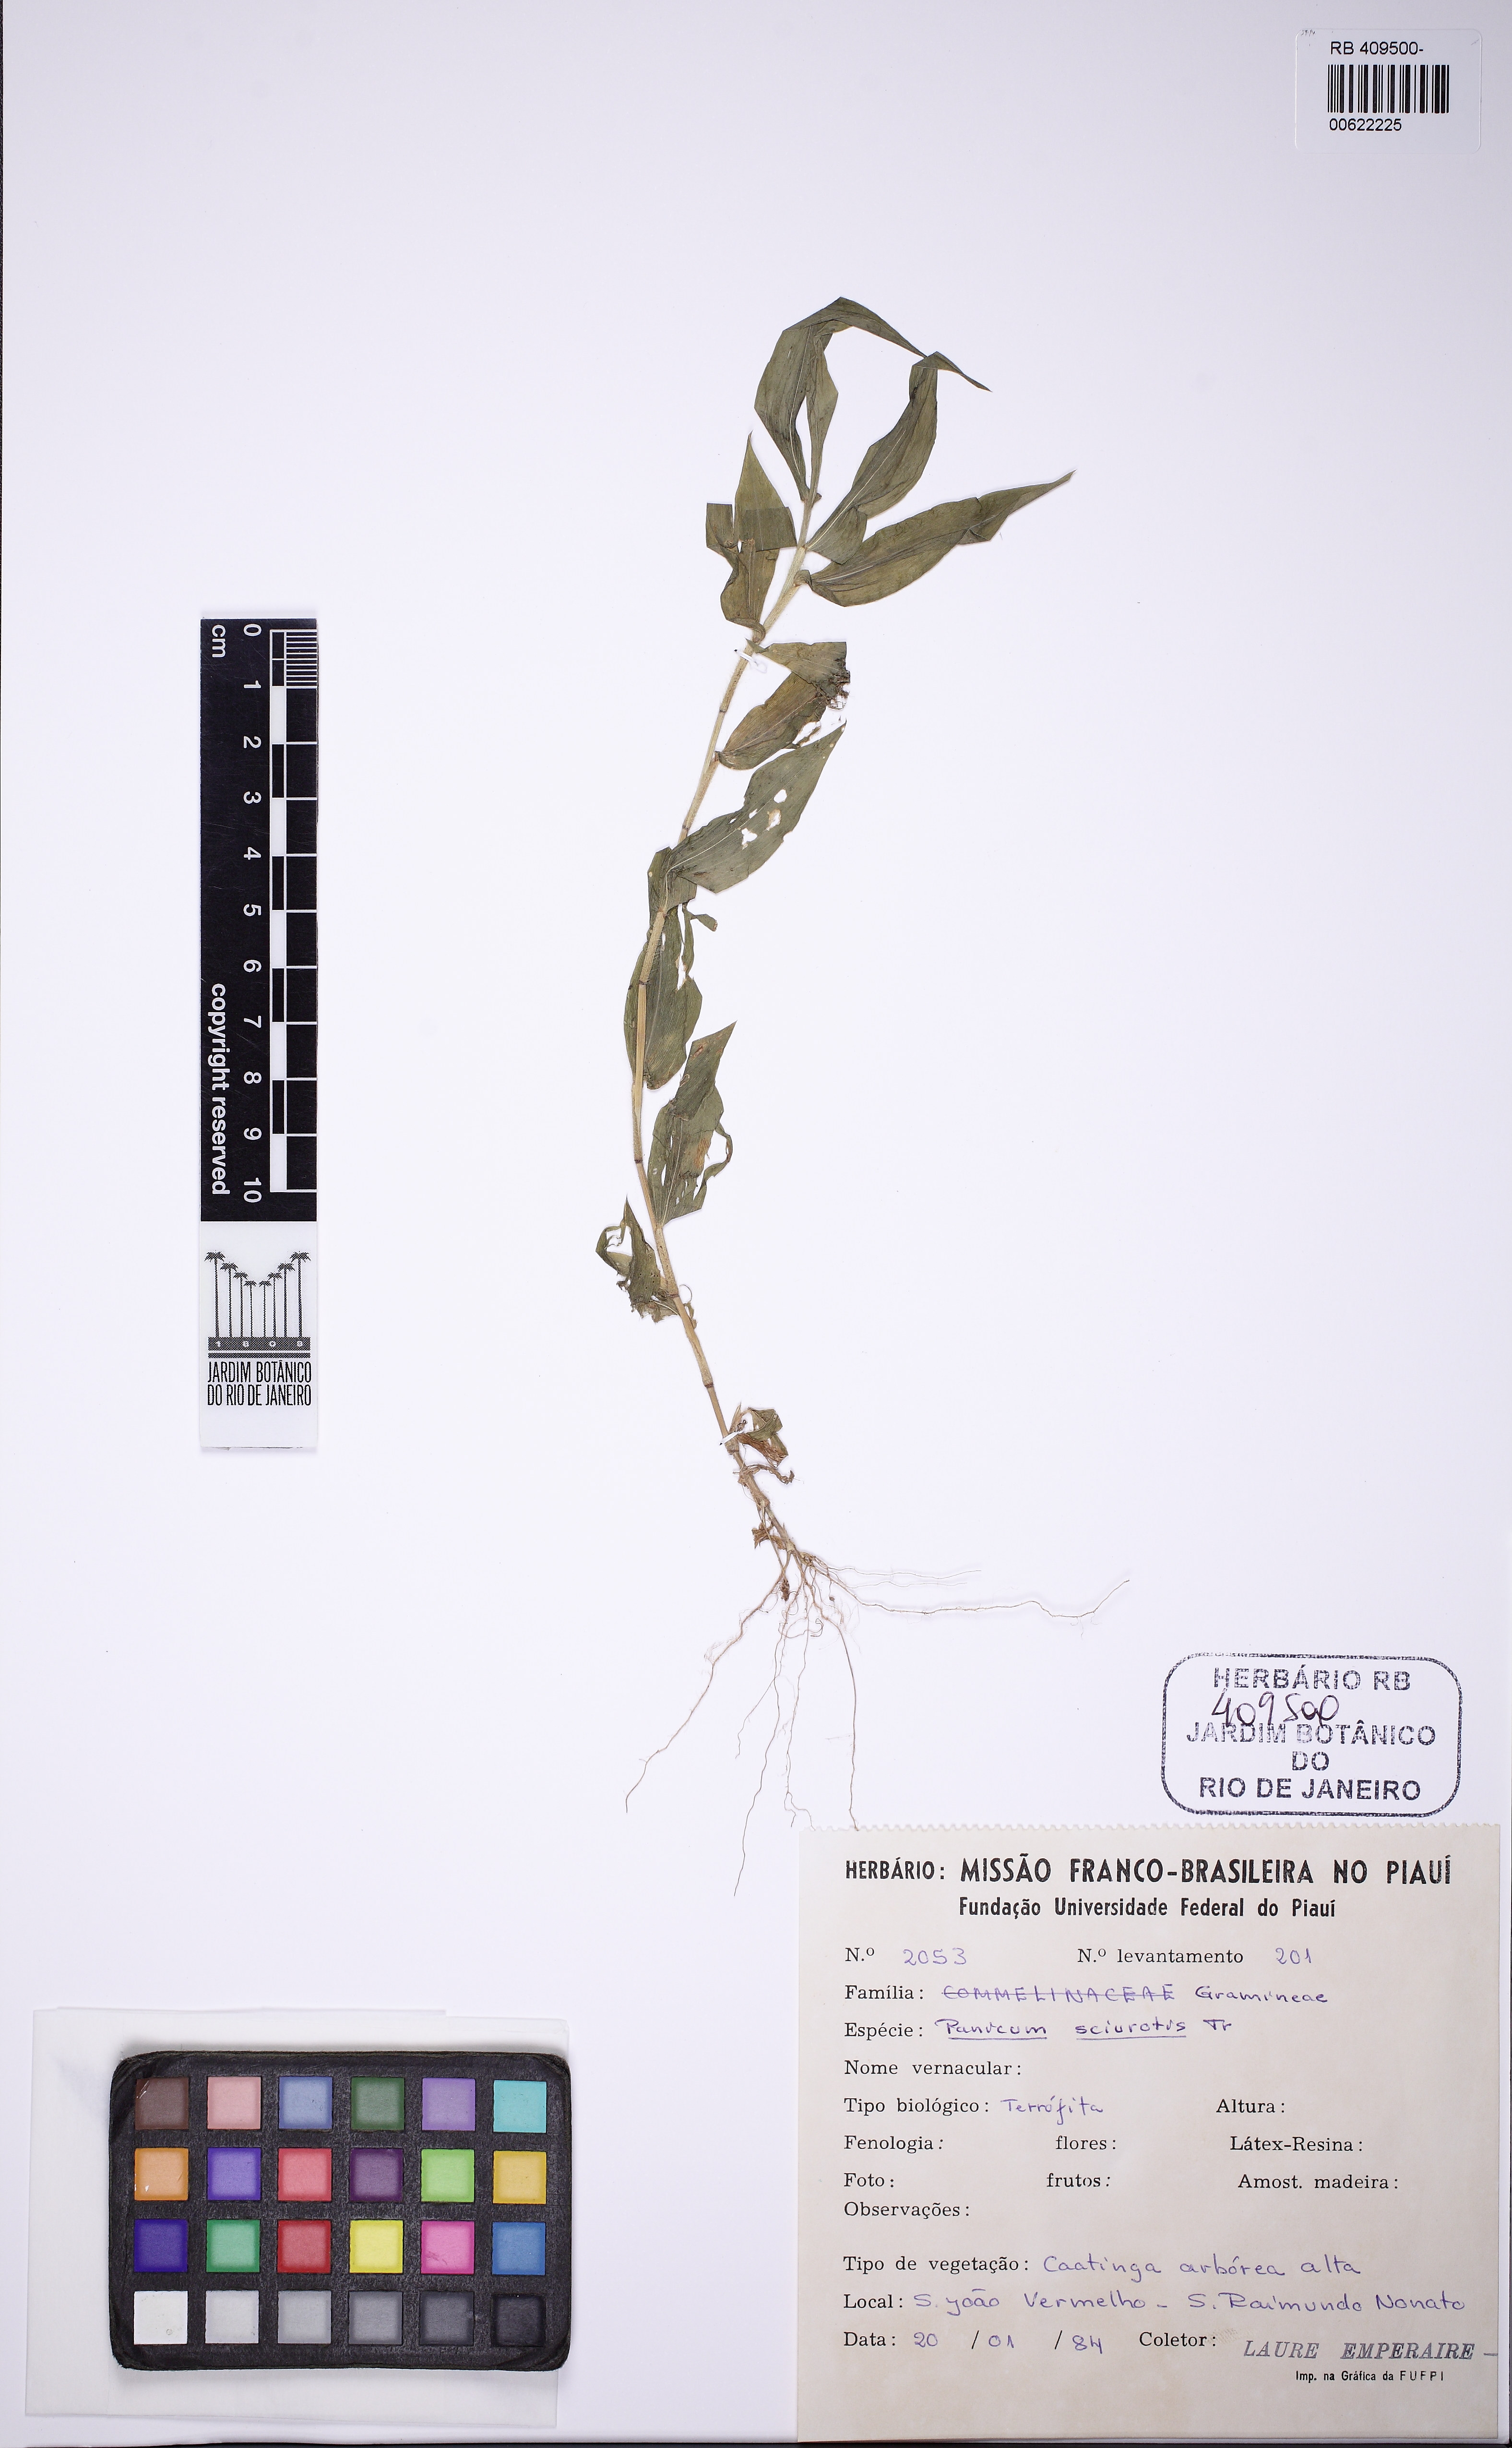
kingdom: Plantae
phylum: Tracheophyta
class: Liliopsida
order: Poales
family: Poaceae
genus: Dichanthelium
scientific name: Dichanthelium sciurotis
